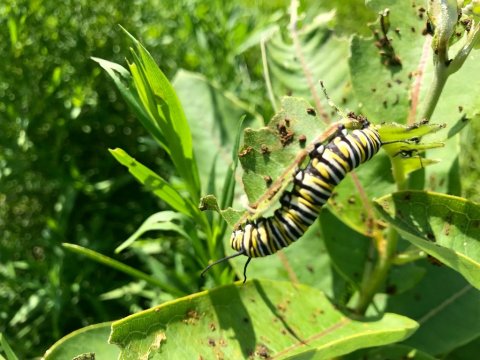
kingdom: Animalia
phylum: Arthropoda
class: Insecta
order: Lepidoptera
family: Nymphalidae
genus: Danaus
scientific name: Danaus plexippus
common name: Monarch
